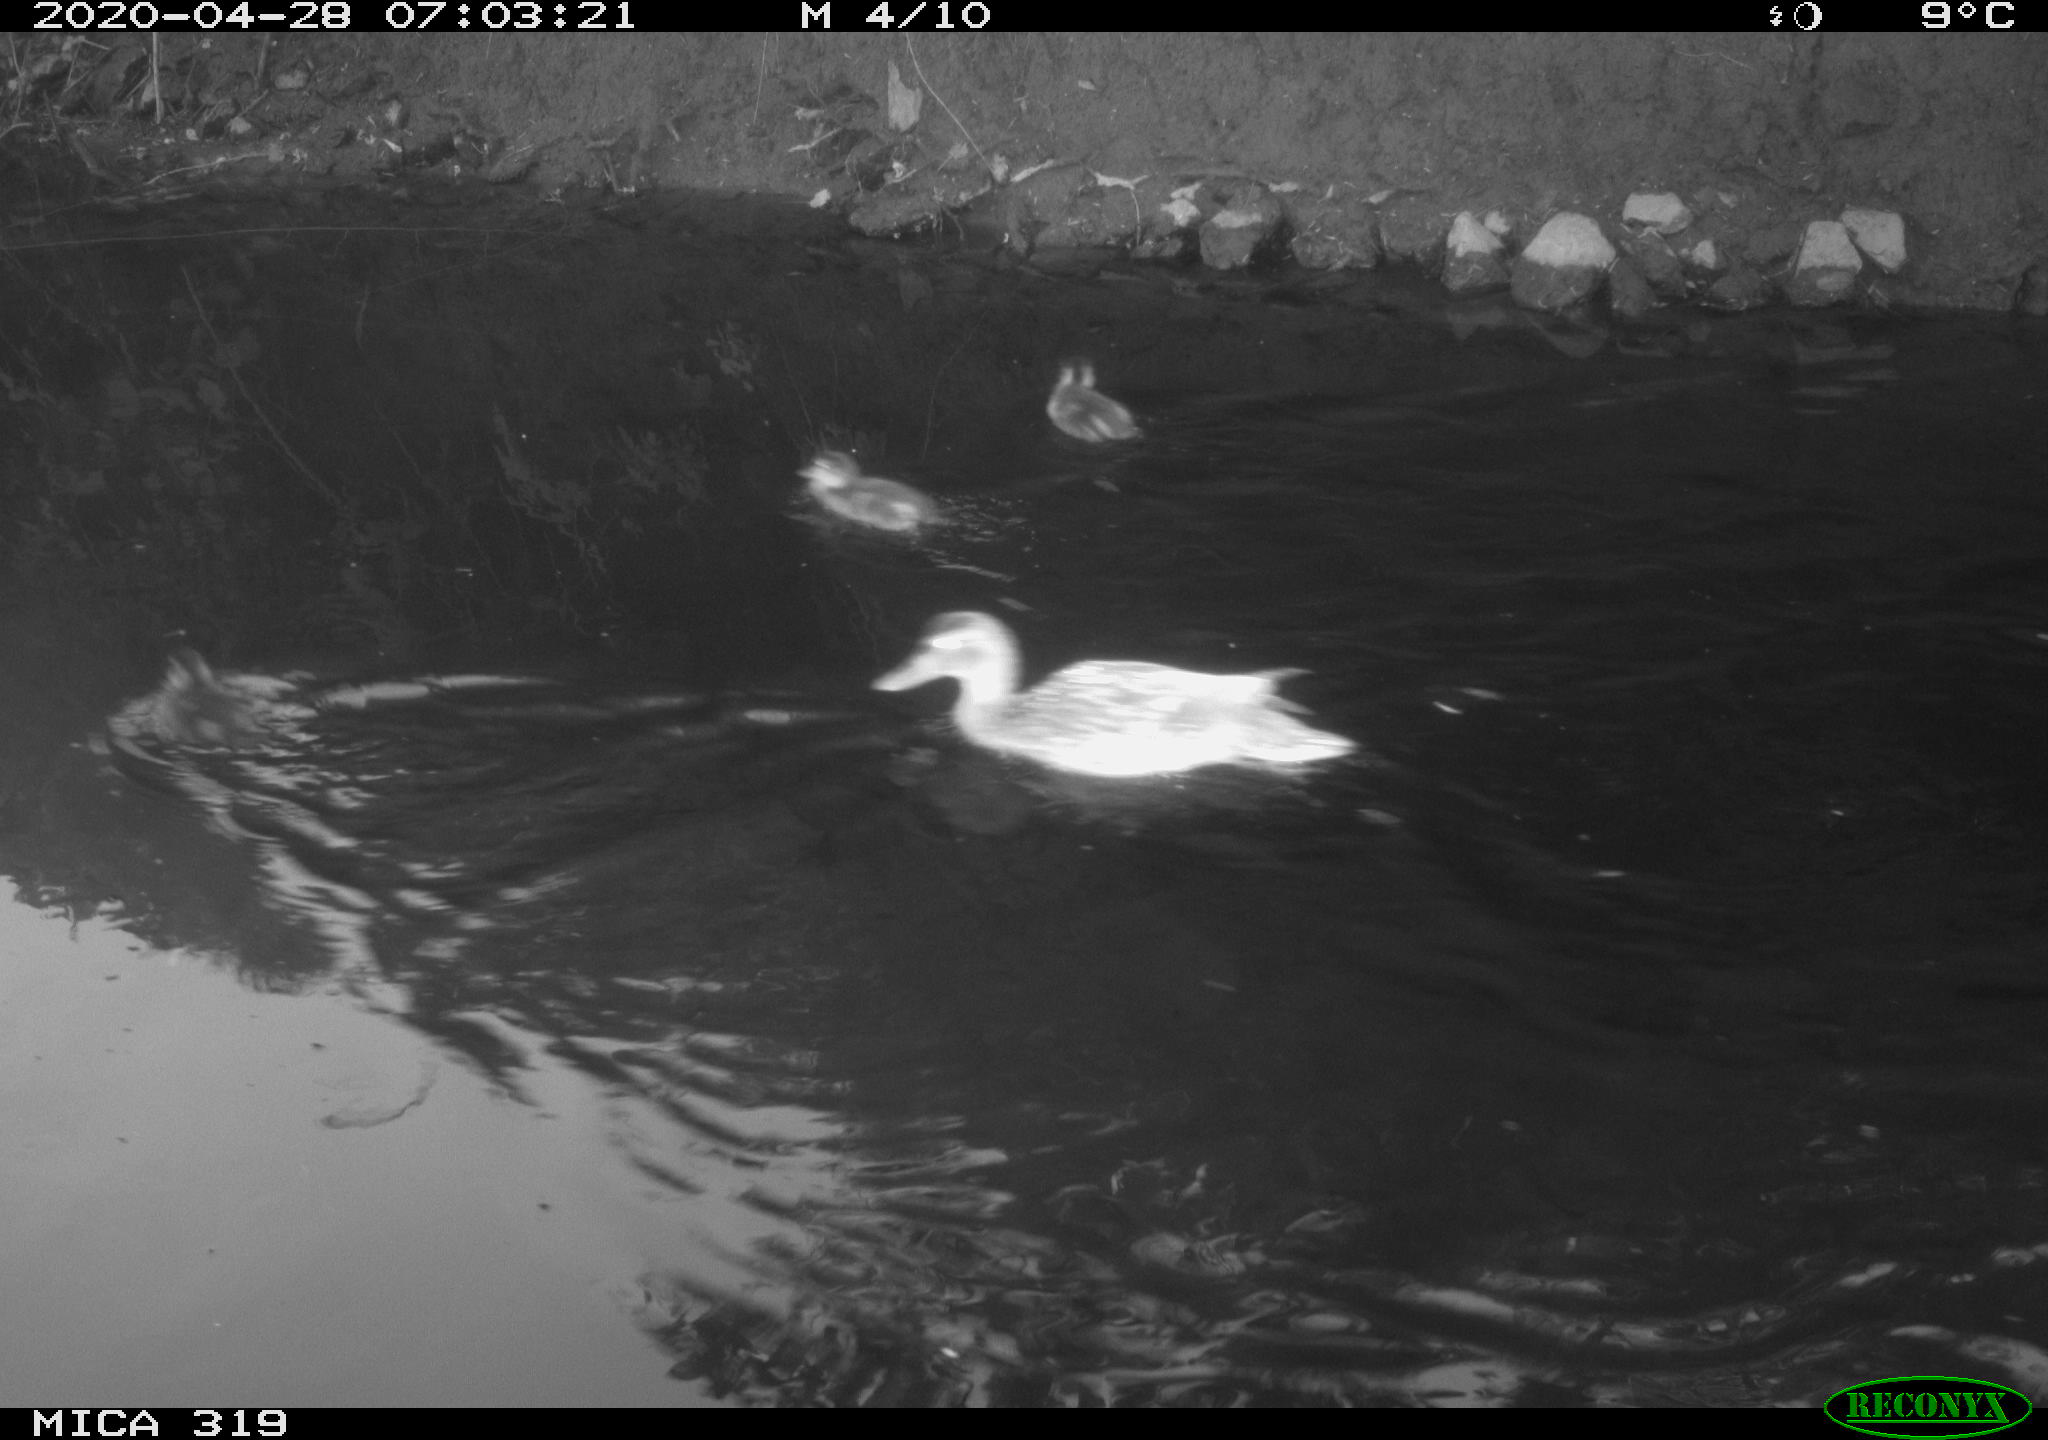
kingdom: Animalia
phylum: Chordata
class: Aves
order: Anseriformes
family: Anatidae
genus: Anas
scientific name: Anas platyrhynchos
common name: Mallard
